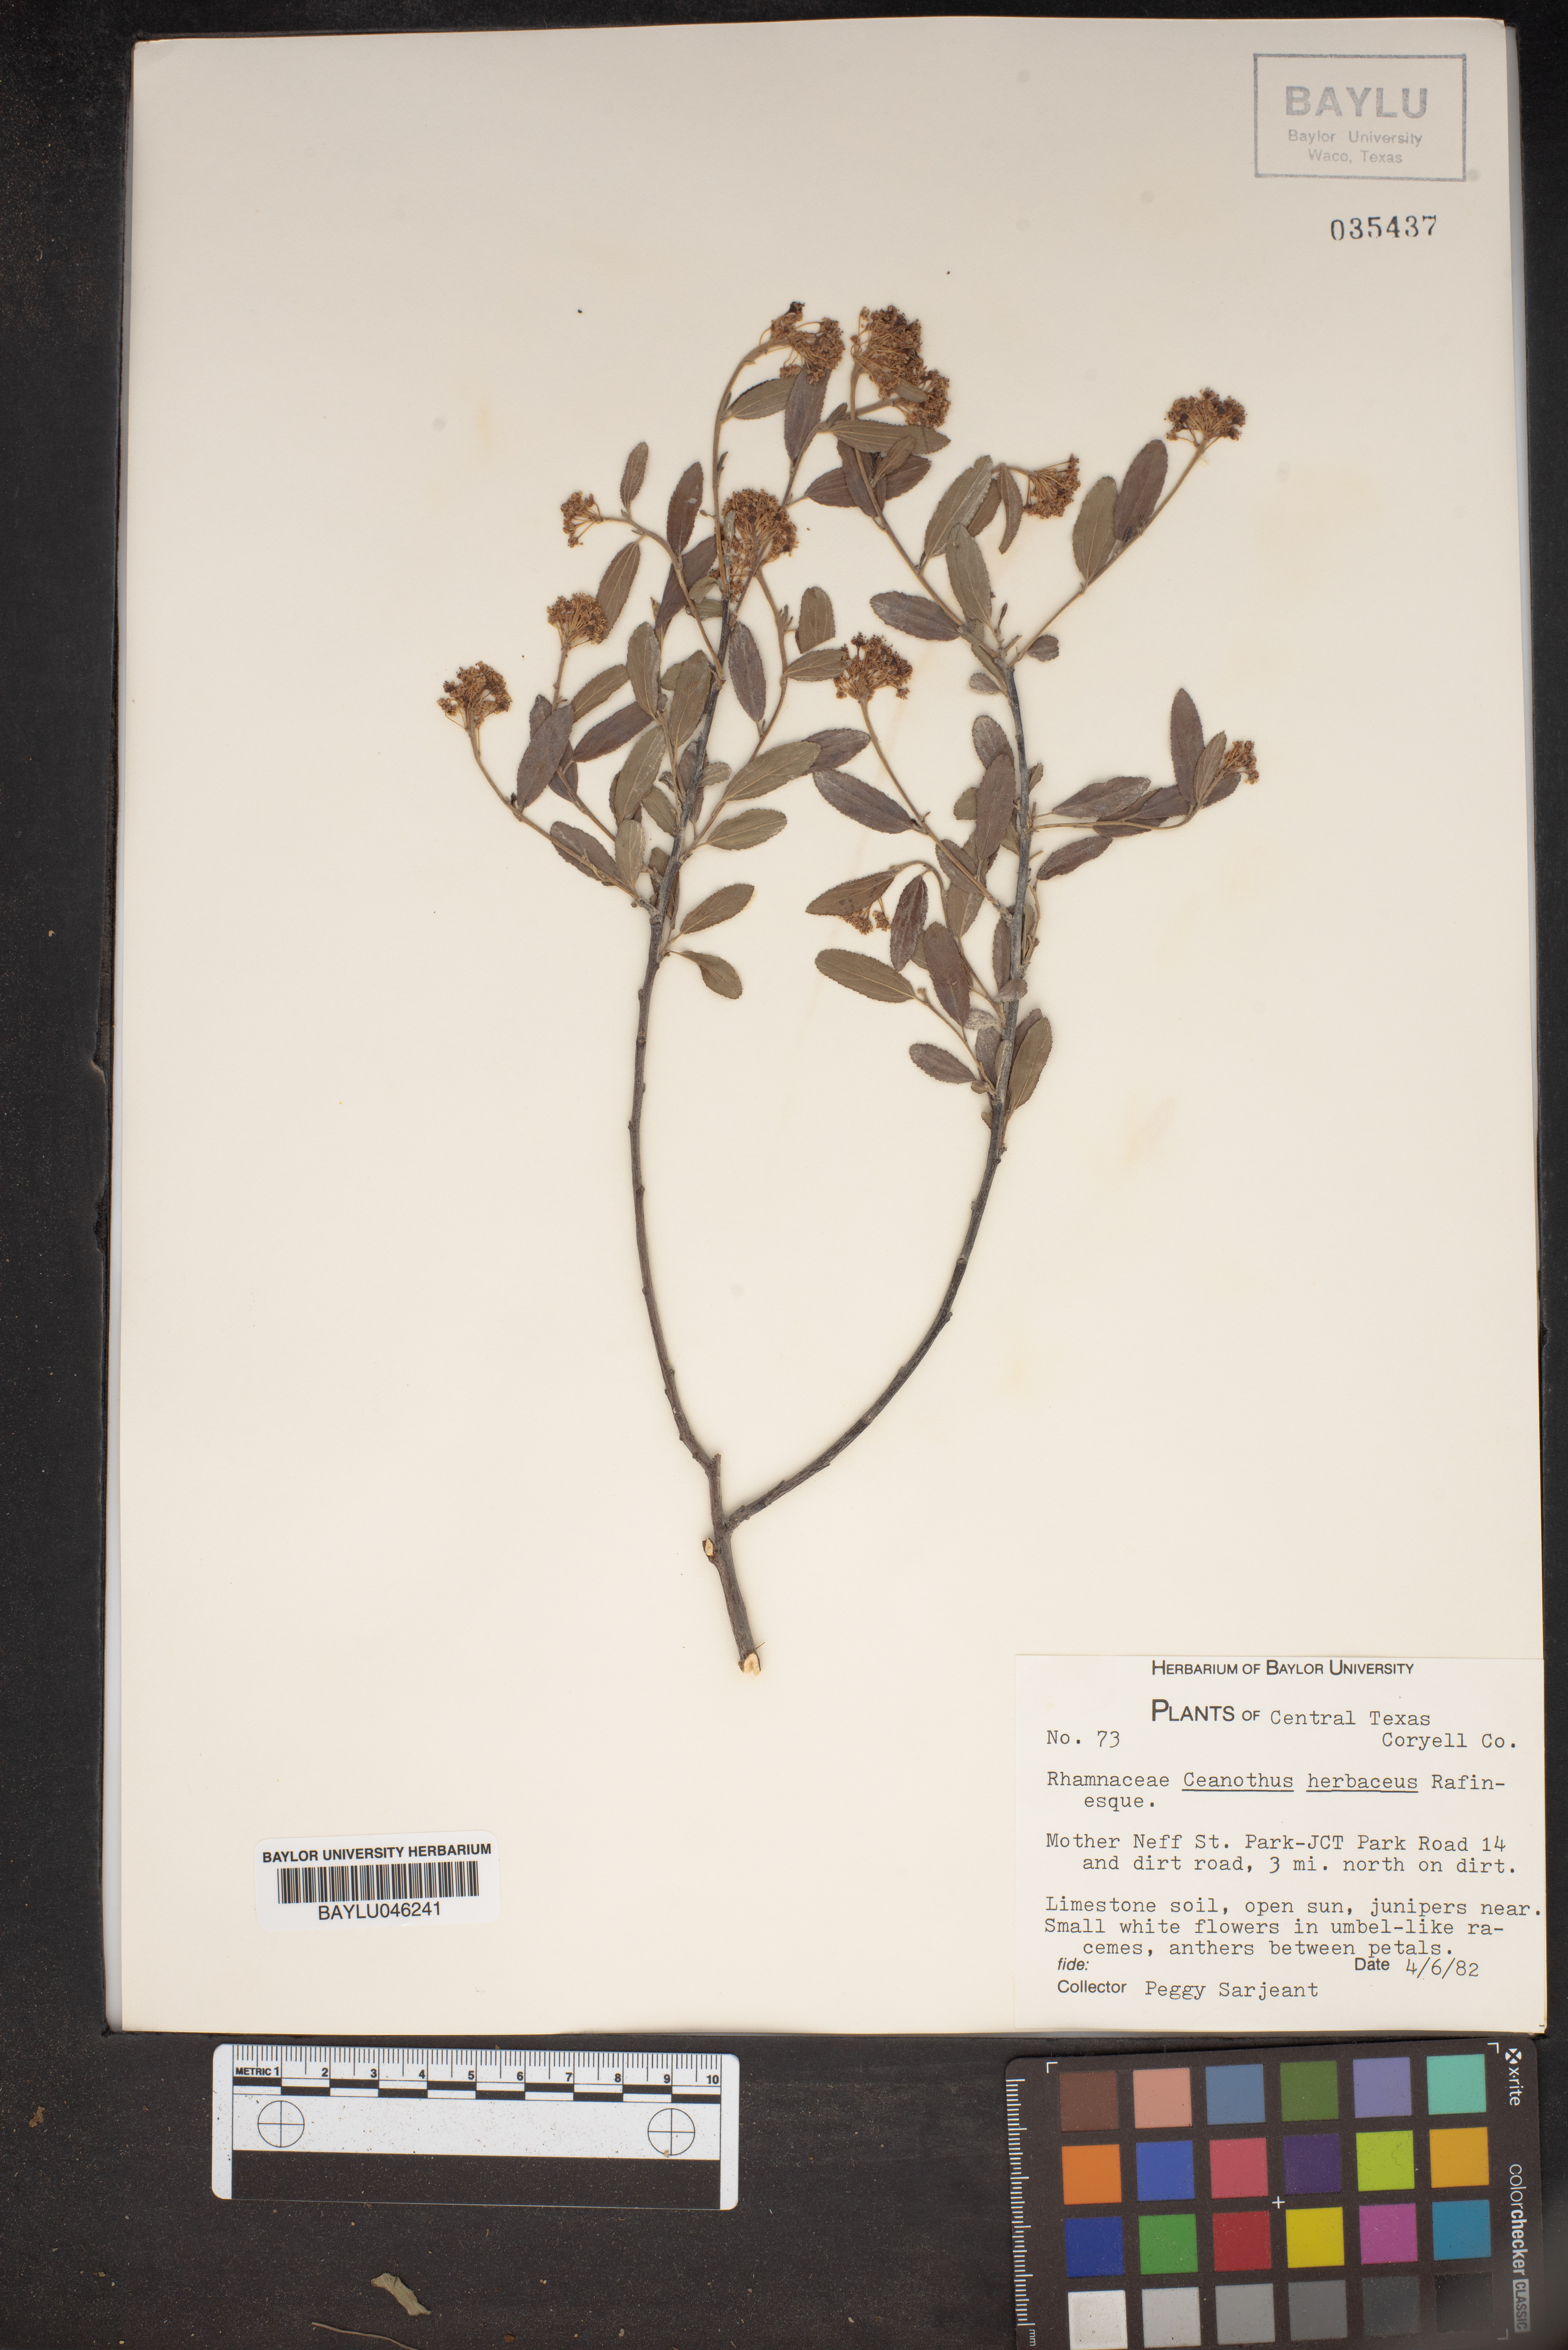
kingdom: Plantae
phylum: Tracheophyta
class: Magnoliopsida
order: Rosales
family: Rhamnaceae
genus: Ceanothus
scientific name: Ceanothus herbaceus
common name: Inland ceanothus
